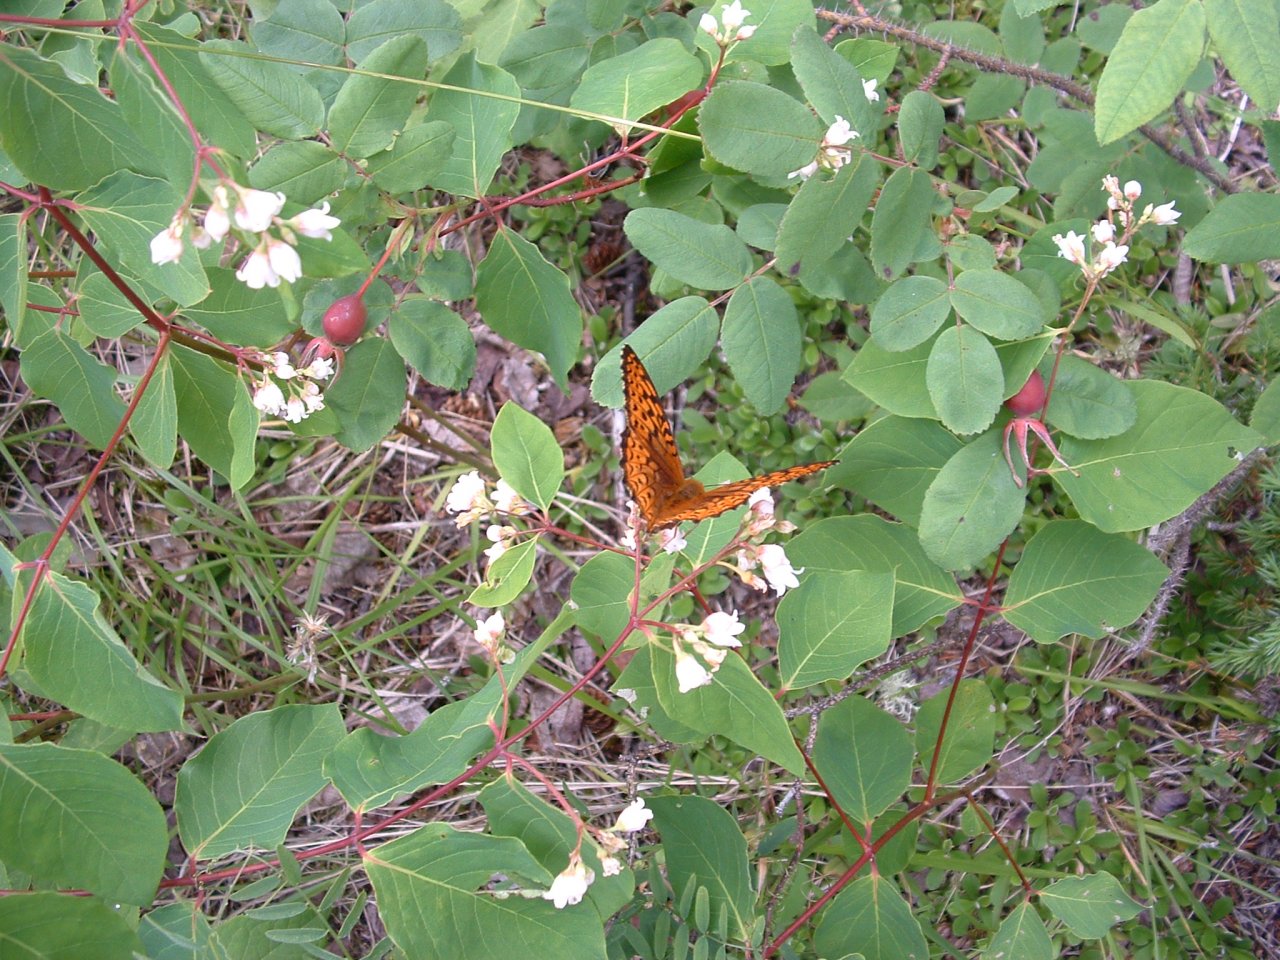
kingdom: Animalia
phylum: Arthropoda
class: Insecta
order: Lepidoptera
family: Nymphalidae
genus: Speyeria
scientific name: Speyeria atlantis
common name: Atlantis Fritillary
